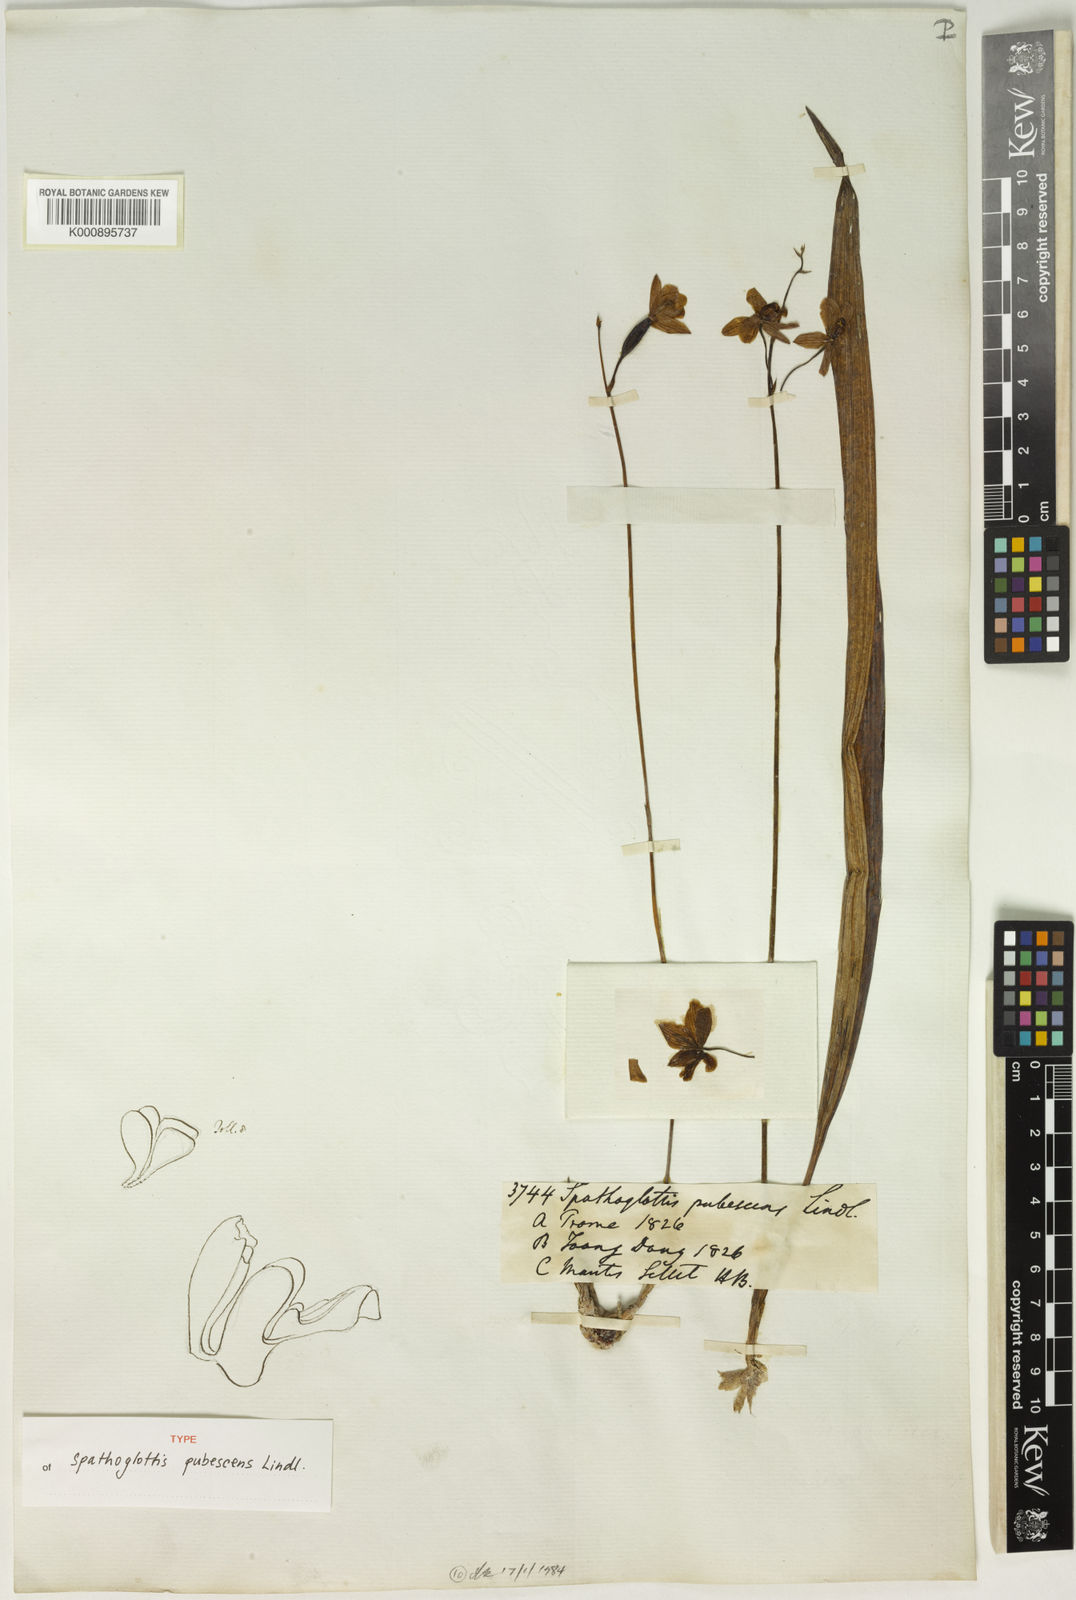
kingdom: Plantae
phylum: Tracheophyta
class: Liliopsida
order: Asparagales
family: Orchidaceae
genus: Spathoglottis
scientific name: Spathoglottis pubescens
